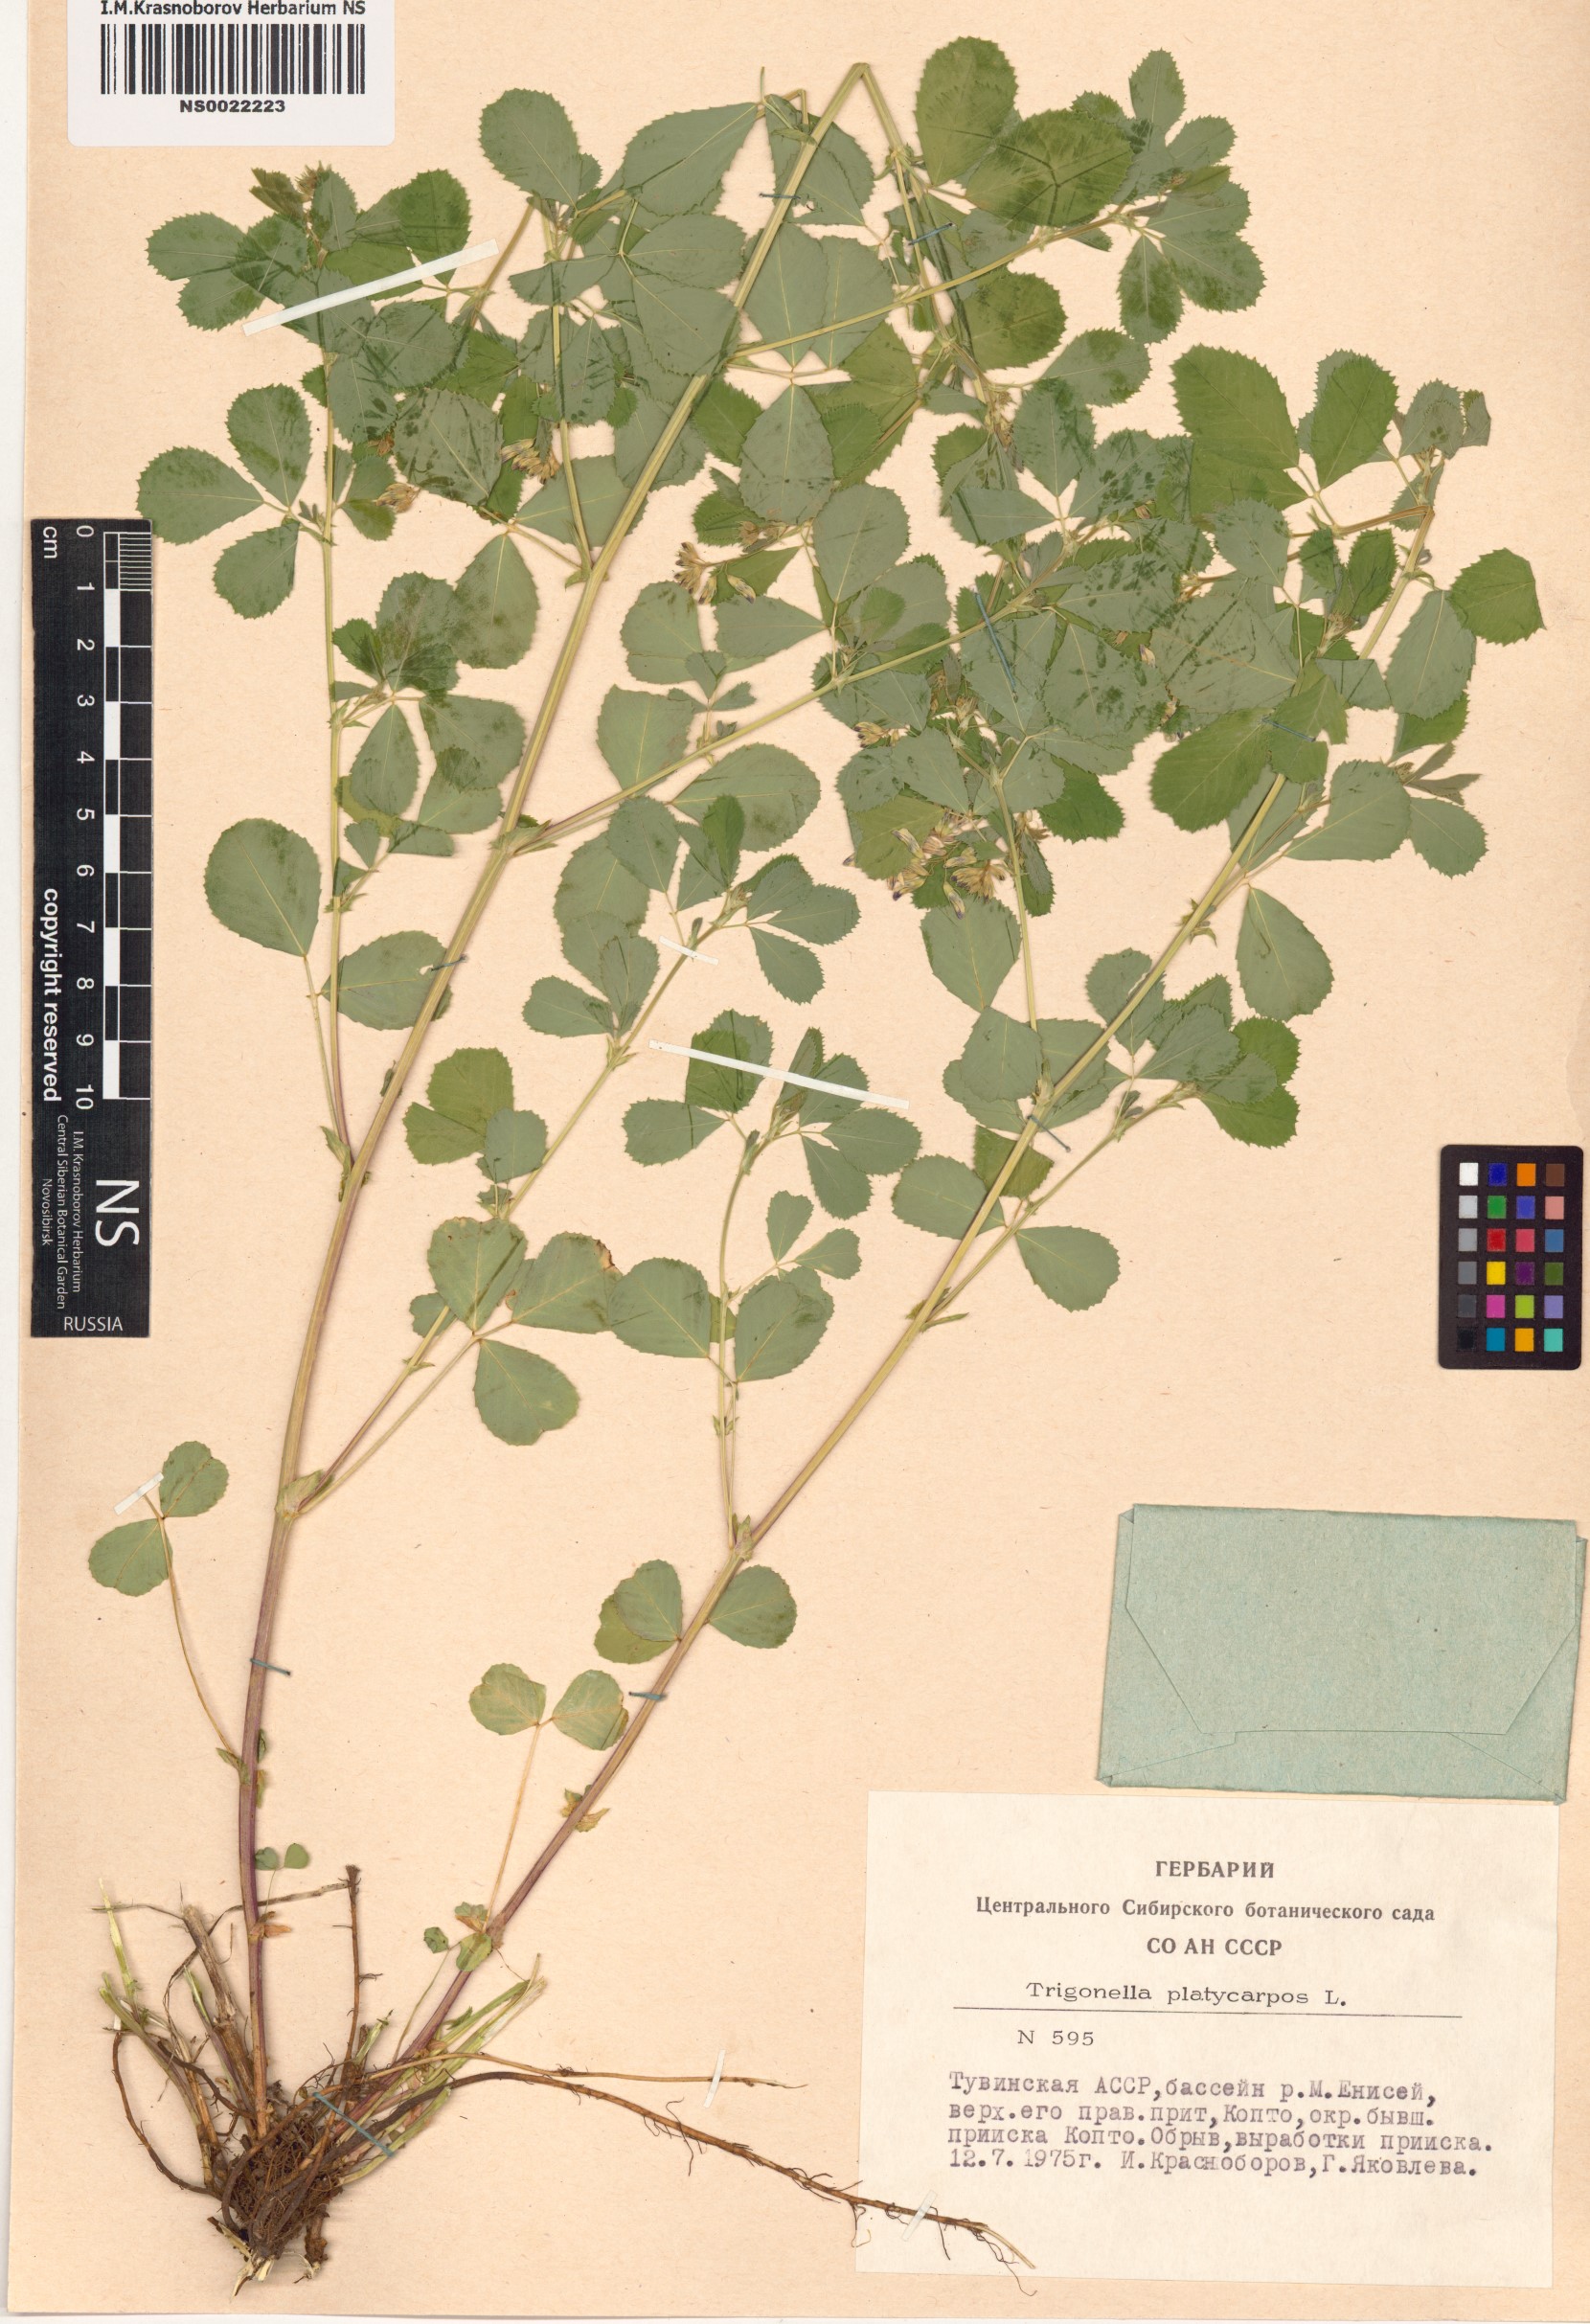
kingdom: Plantae
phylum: Tracheophyta
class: Magnoliopsida
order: Fabales
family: Fabaceae
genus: Medicago
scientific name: Medicago platycarpos
